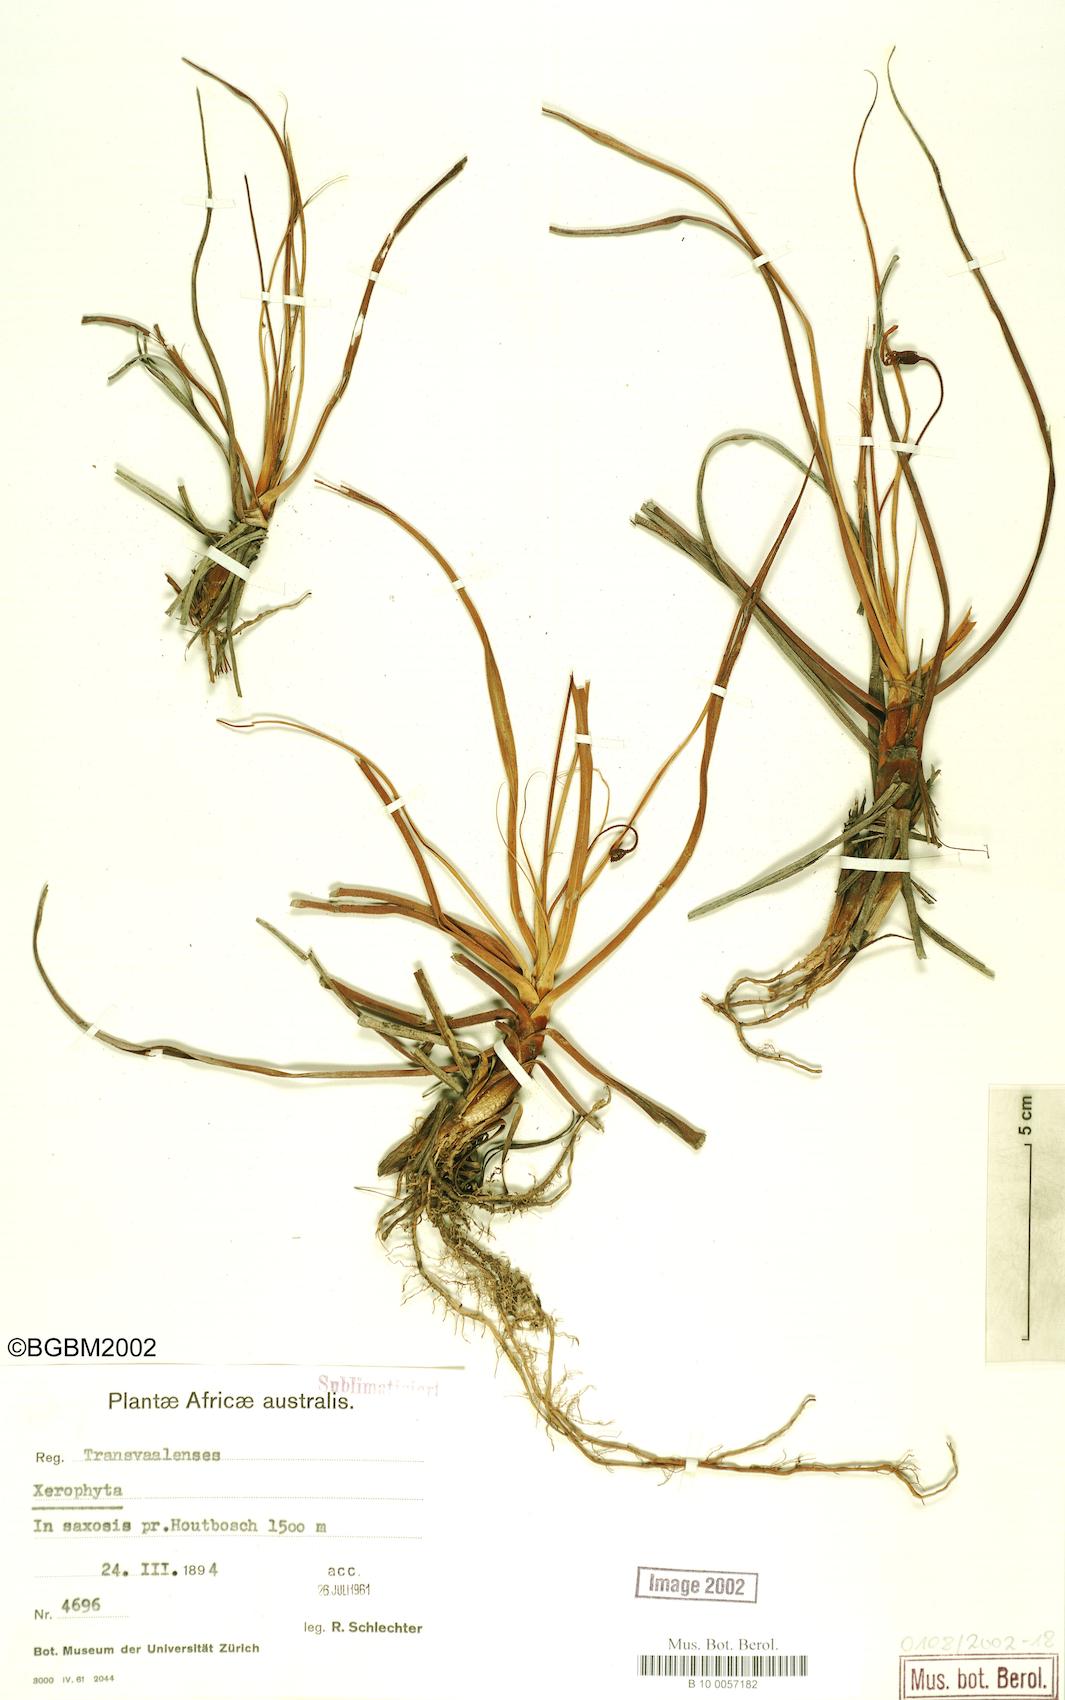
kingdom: Plantae
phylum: Tracheophyta
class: Liliopsida
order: Pandanales
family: Velloziaceae
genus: Vellozia
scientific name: Vellozia
